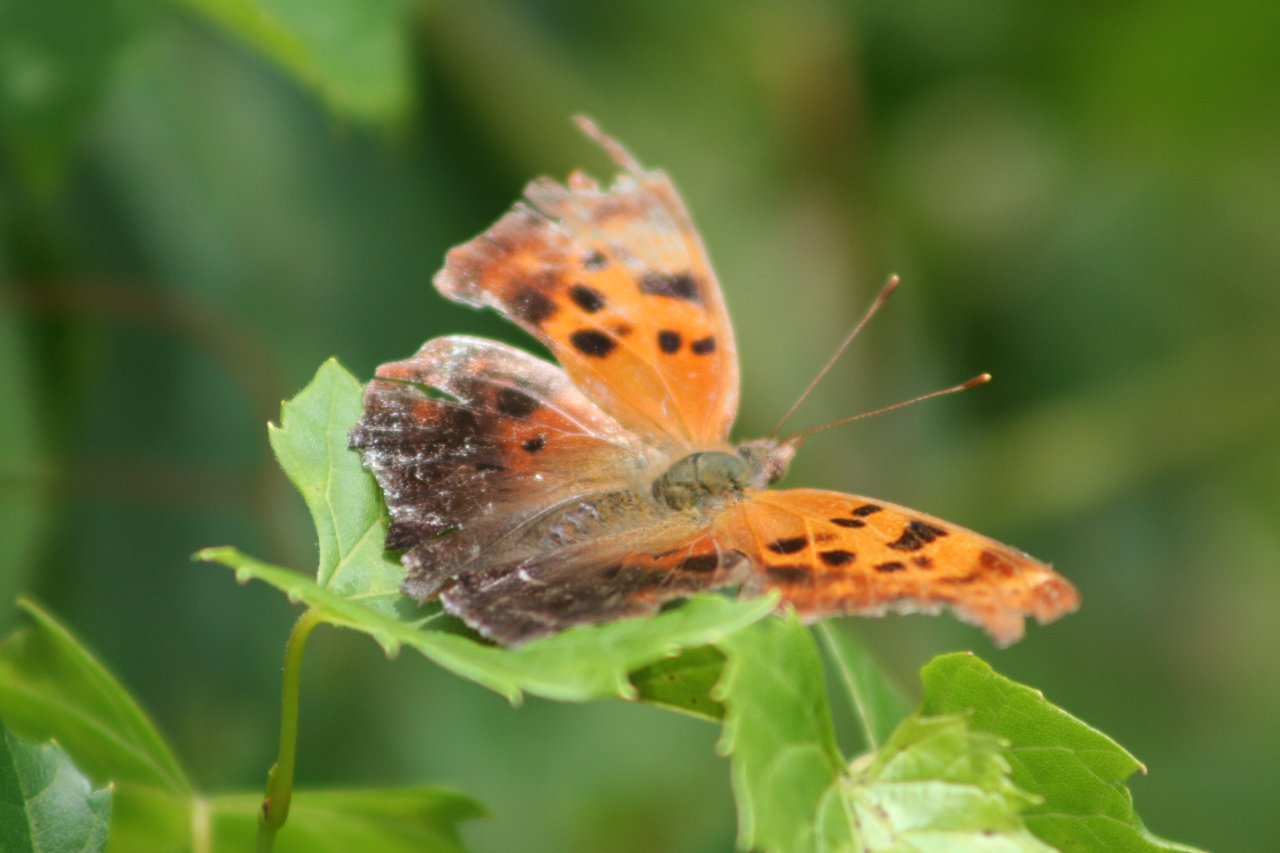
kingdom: Animalia
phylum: Arthropoda
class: Insecta
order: Lepidoptera
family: Nymphalidae
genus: Polygonia
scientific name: Polygonia interrogationis
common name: Question Mark
